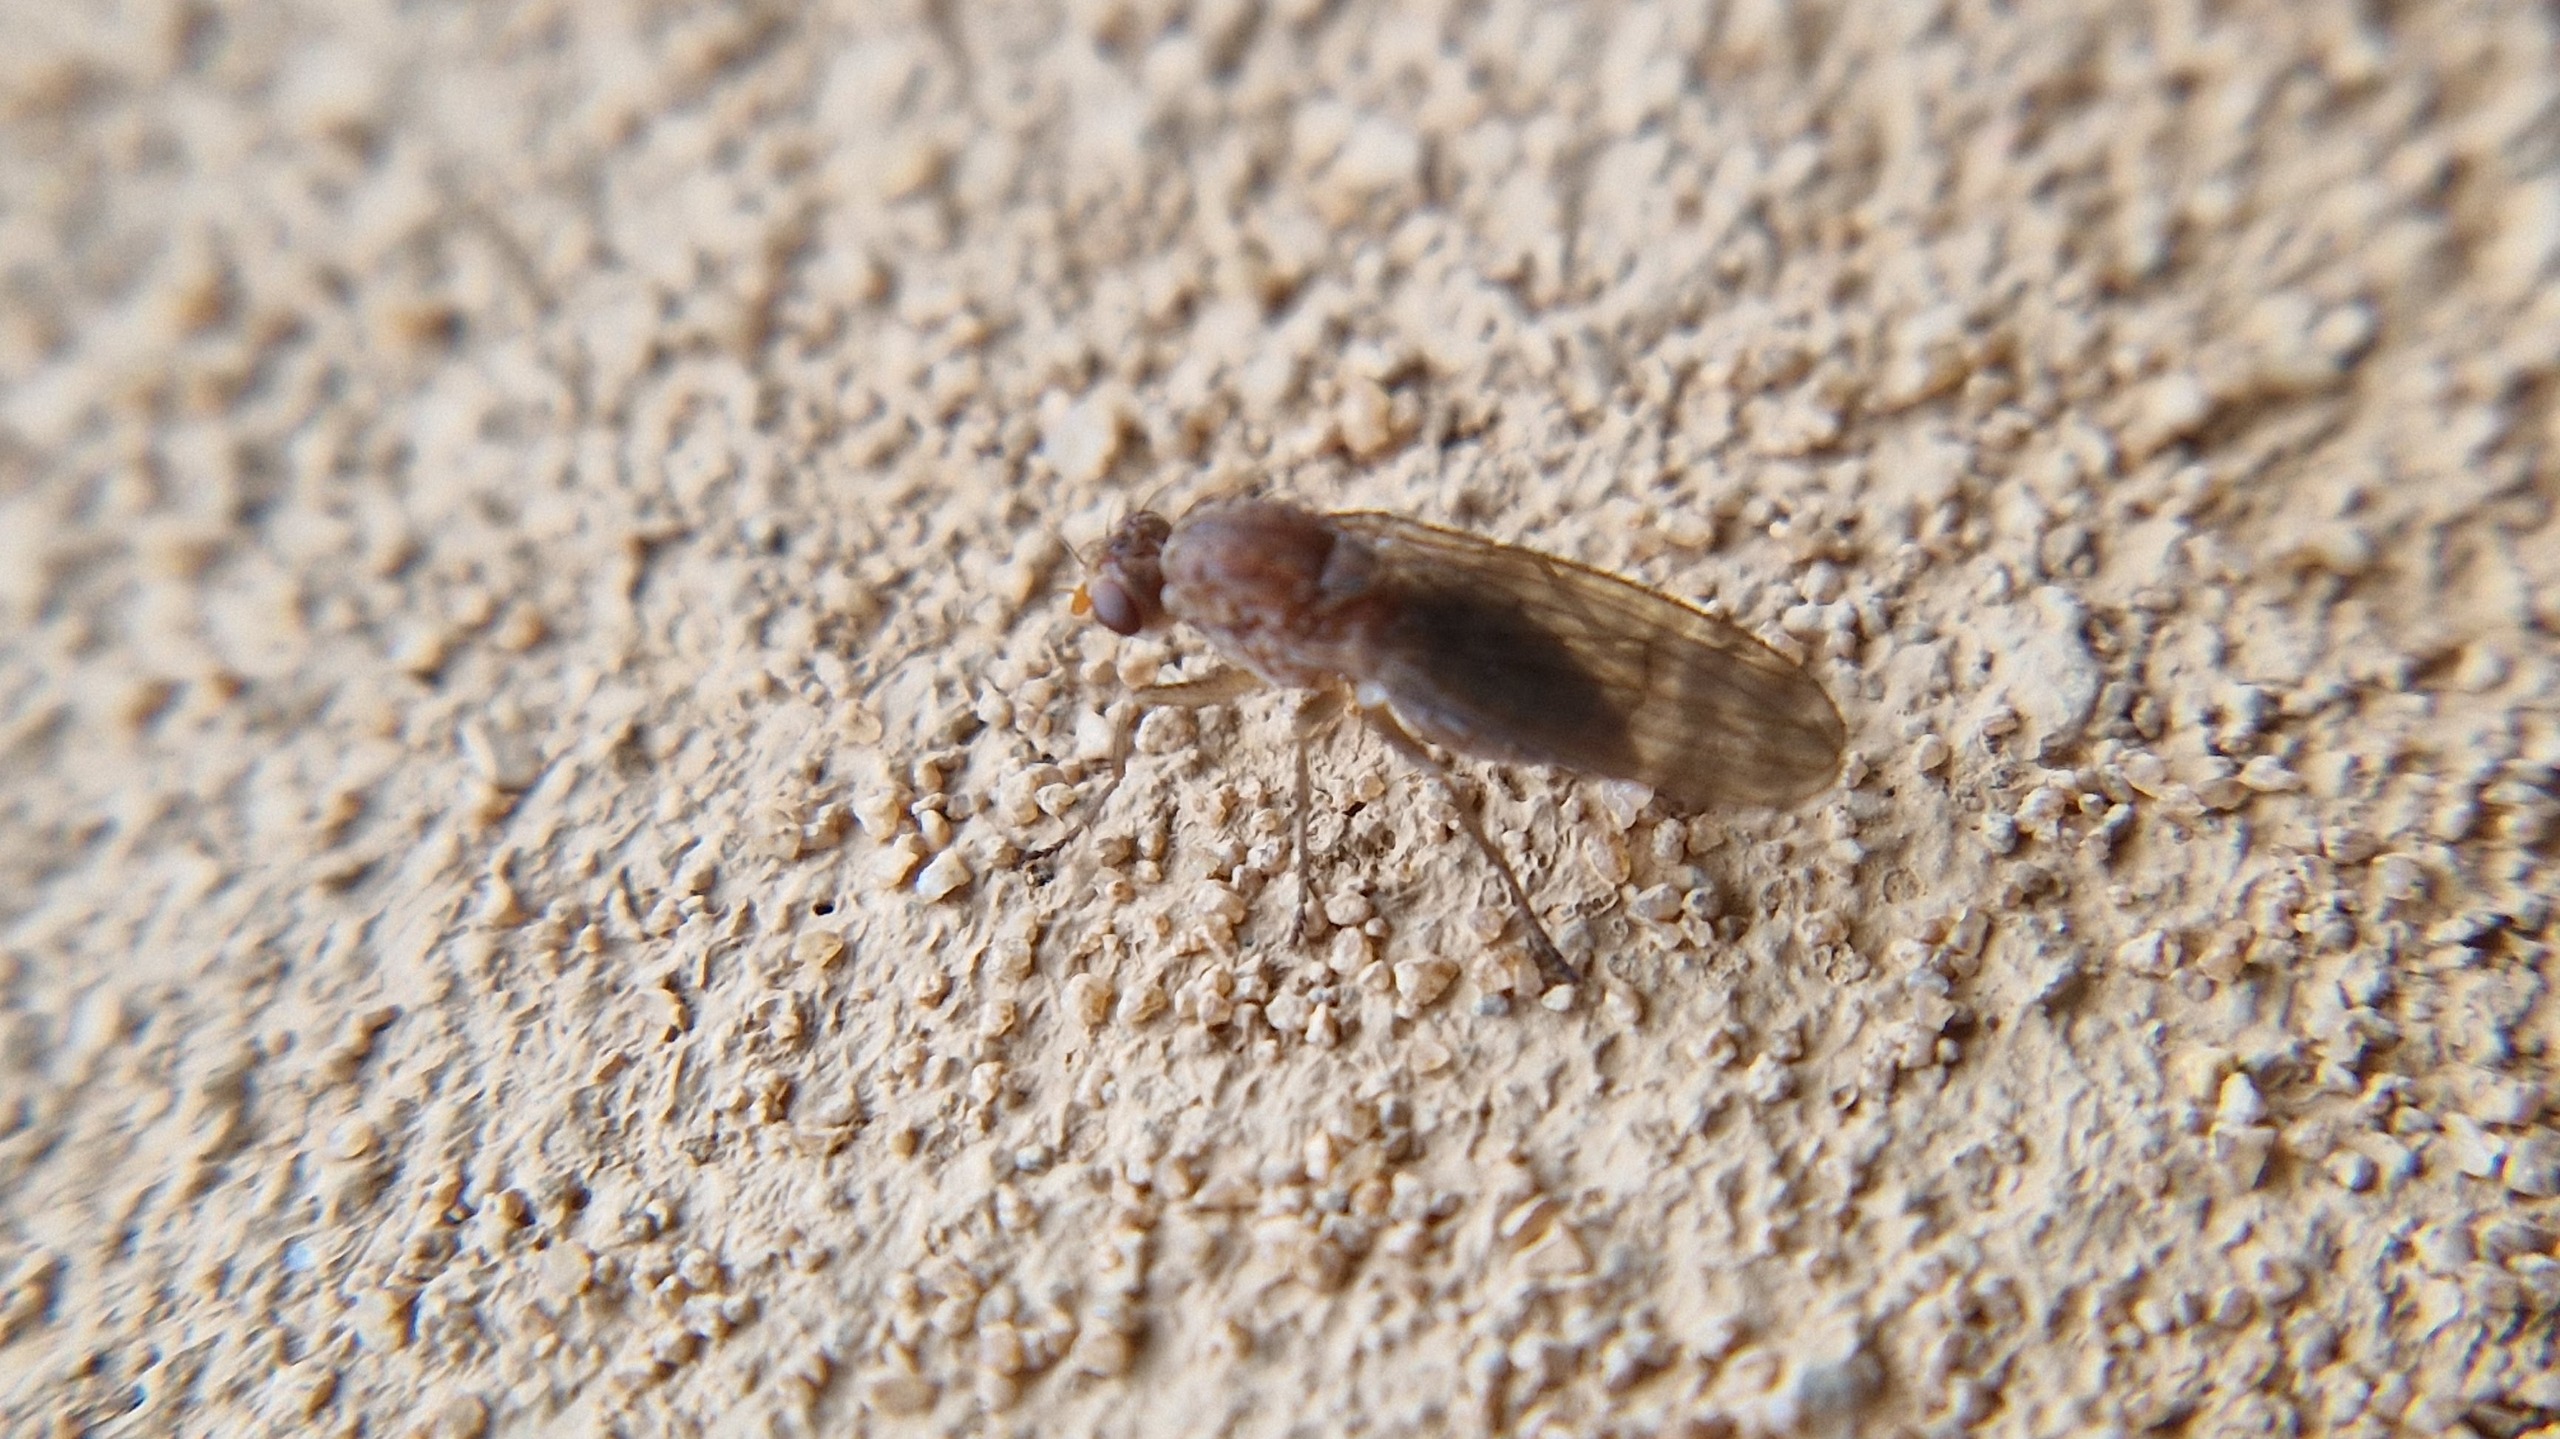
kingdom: Animalia
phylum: Arthropoda
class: Insecta
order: Diptera
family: Heleomyzidae
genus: Suillia
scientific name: Suillia
